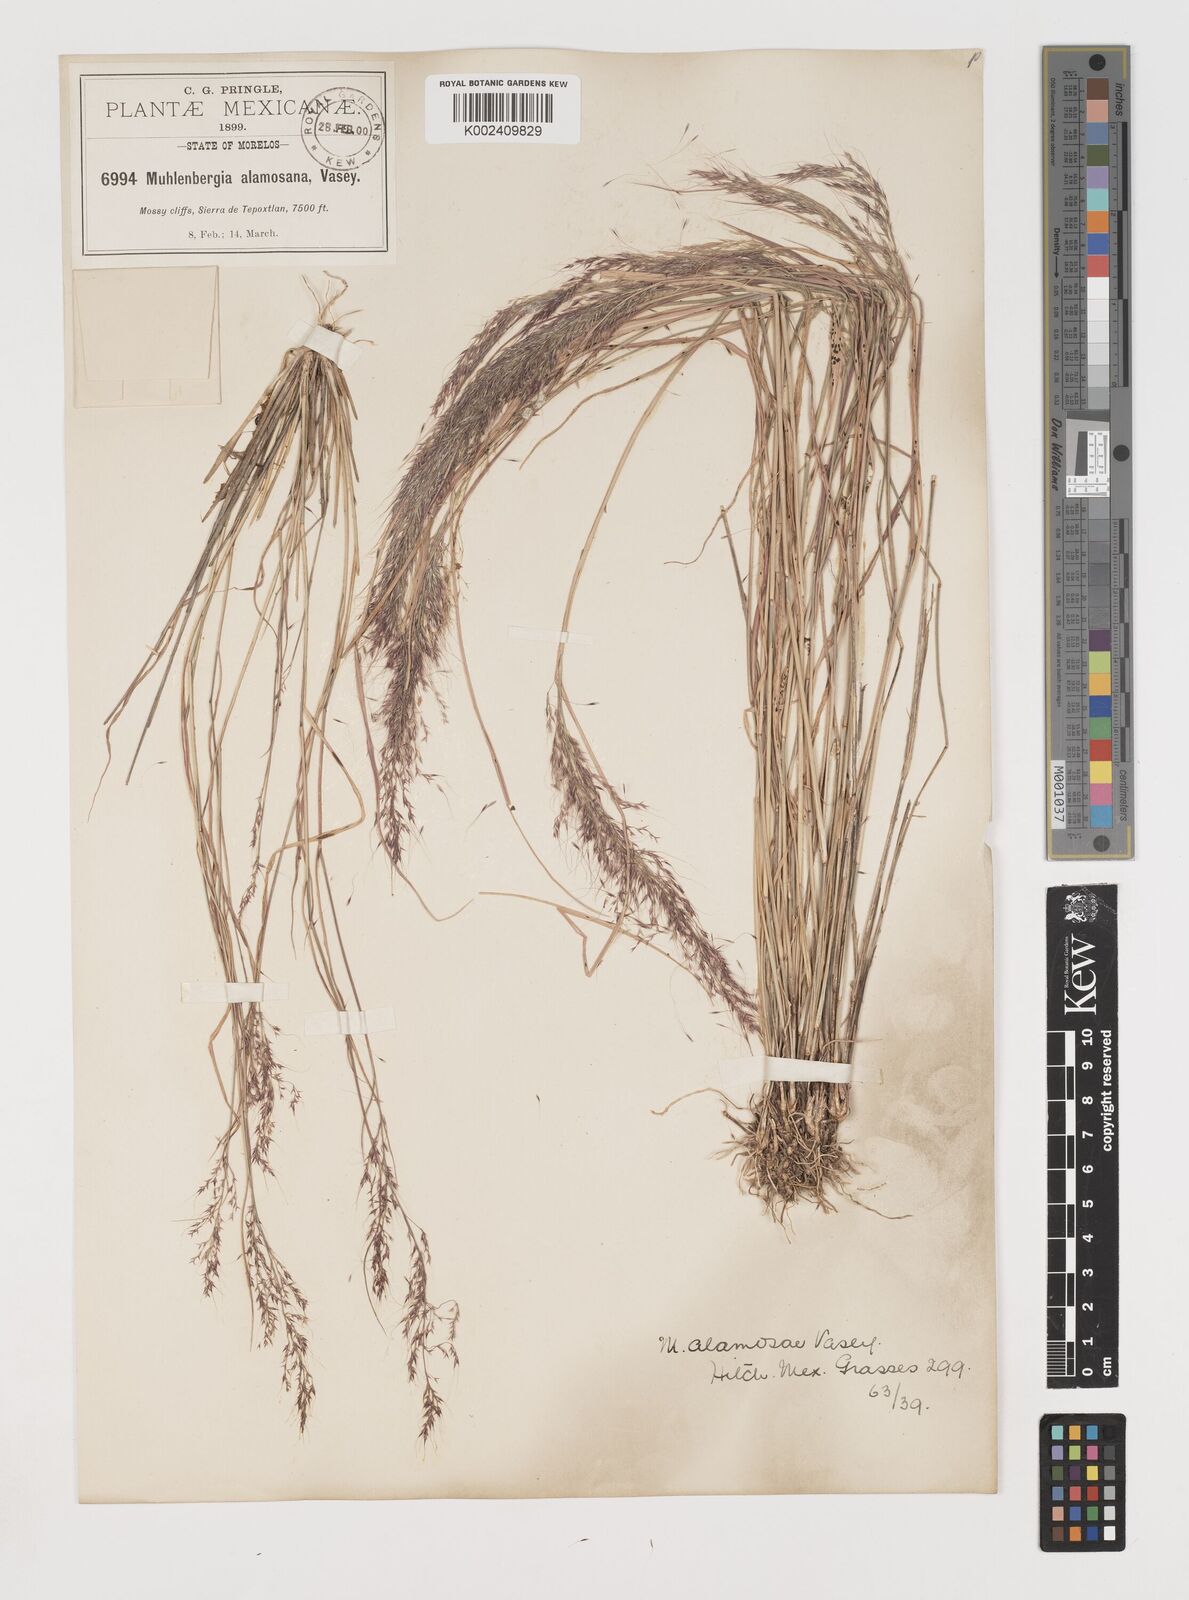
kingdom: Plantae
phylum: Tracheophyta
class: Liliopsida
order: Poales
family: Poaceae
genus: Muhlenbergia
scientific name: Muhlenbergia alamosae
